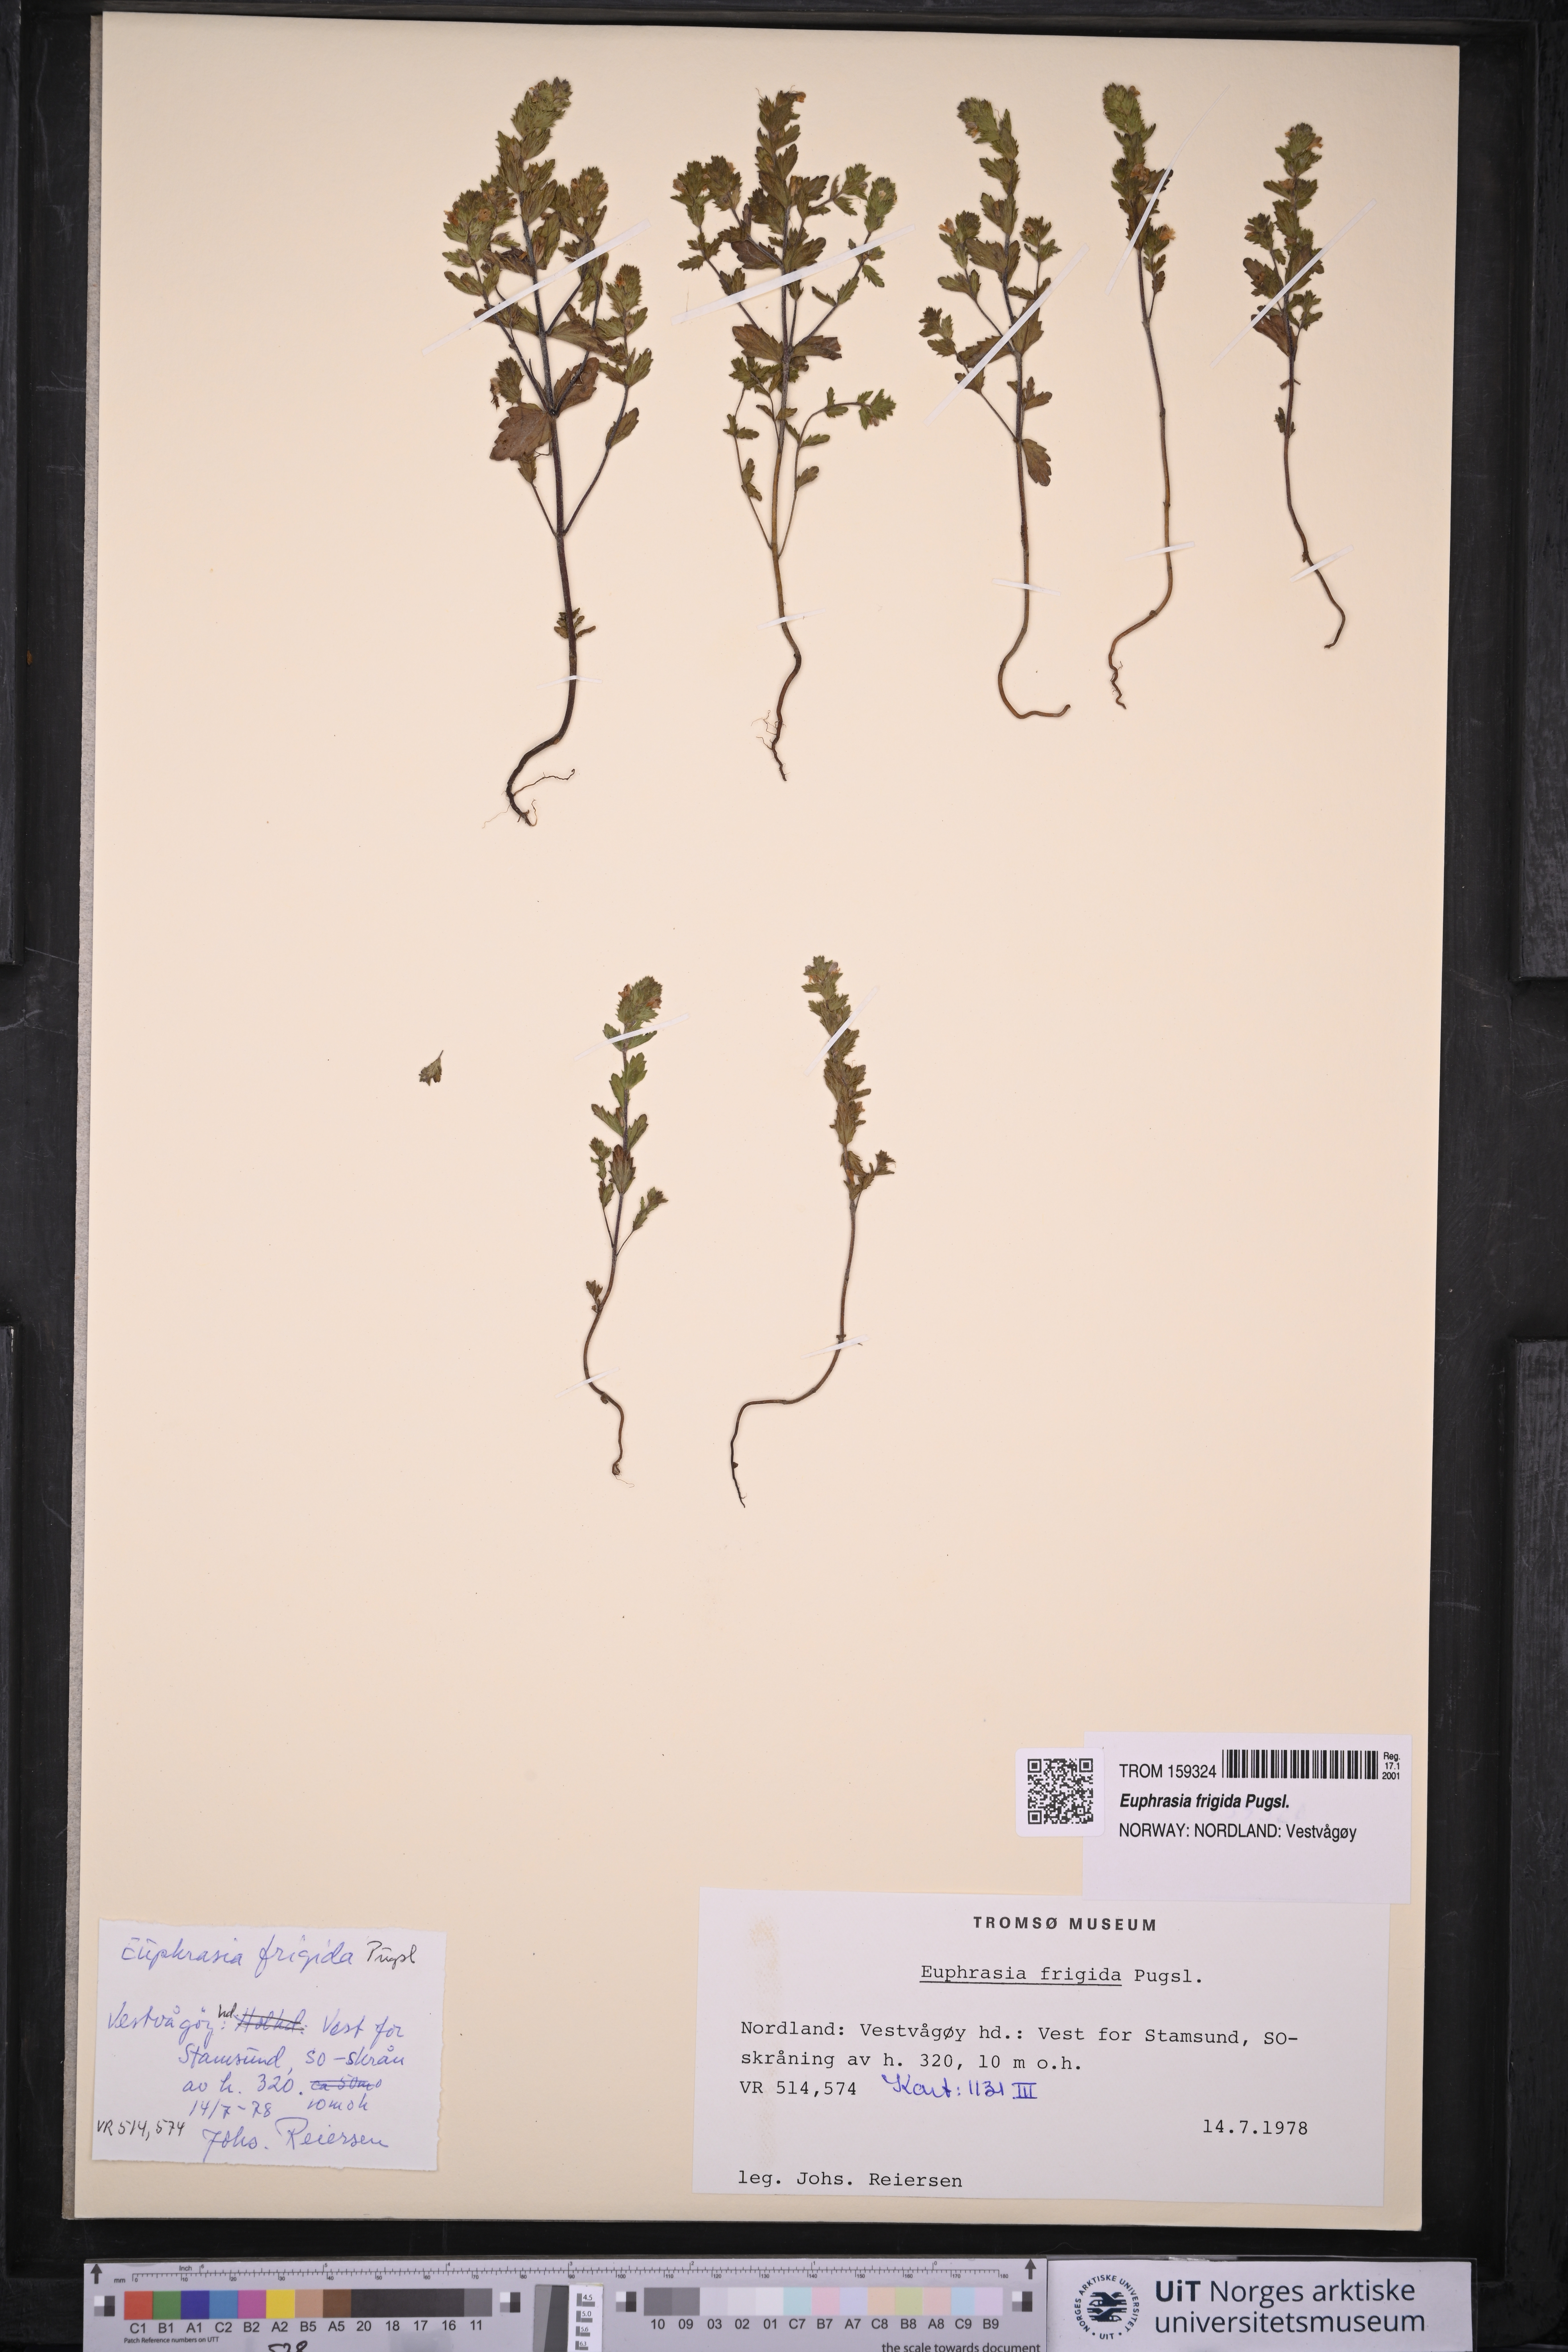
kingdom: Plantae
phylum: Tracheophyta
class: Magnoliopsida
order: Lamiales
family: Orobanchaceae
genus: Euphrasia
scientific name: Euphrasia frigida
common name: An eyebright
